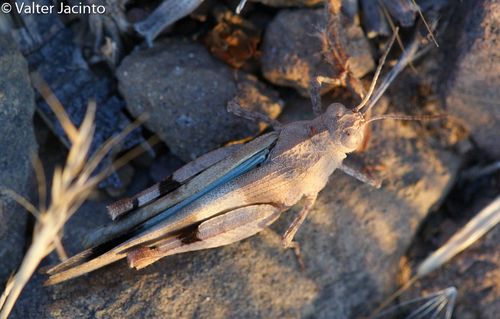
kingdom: Animalia
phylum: Arthropoda
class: Insecta
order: Orthoptera
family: Acrididae
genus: Oedipoda
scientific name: Oedipoda caerulescens
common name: Blue-winged grasshopper
